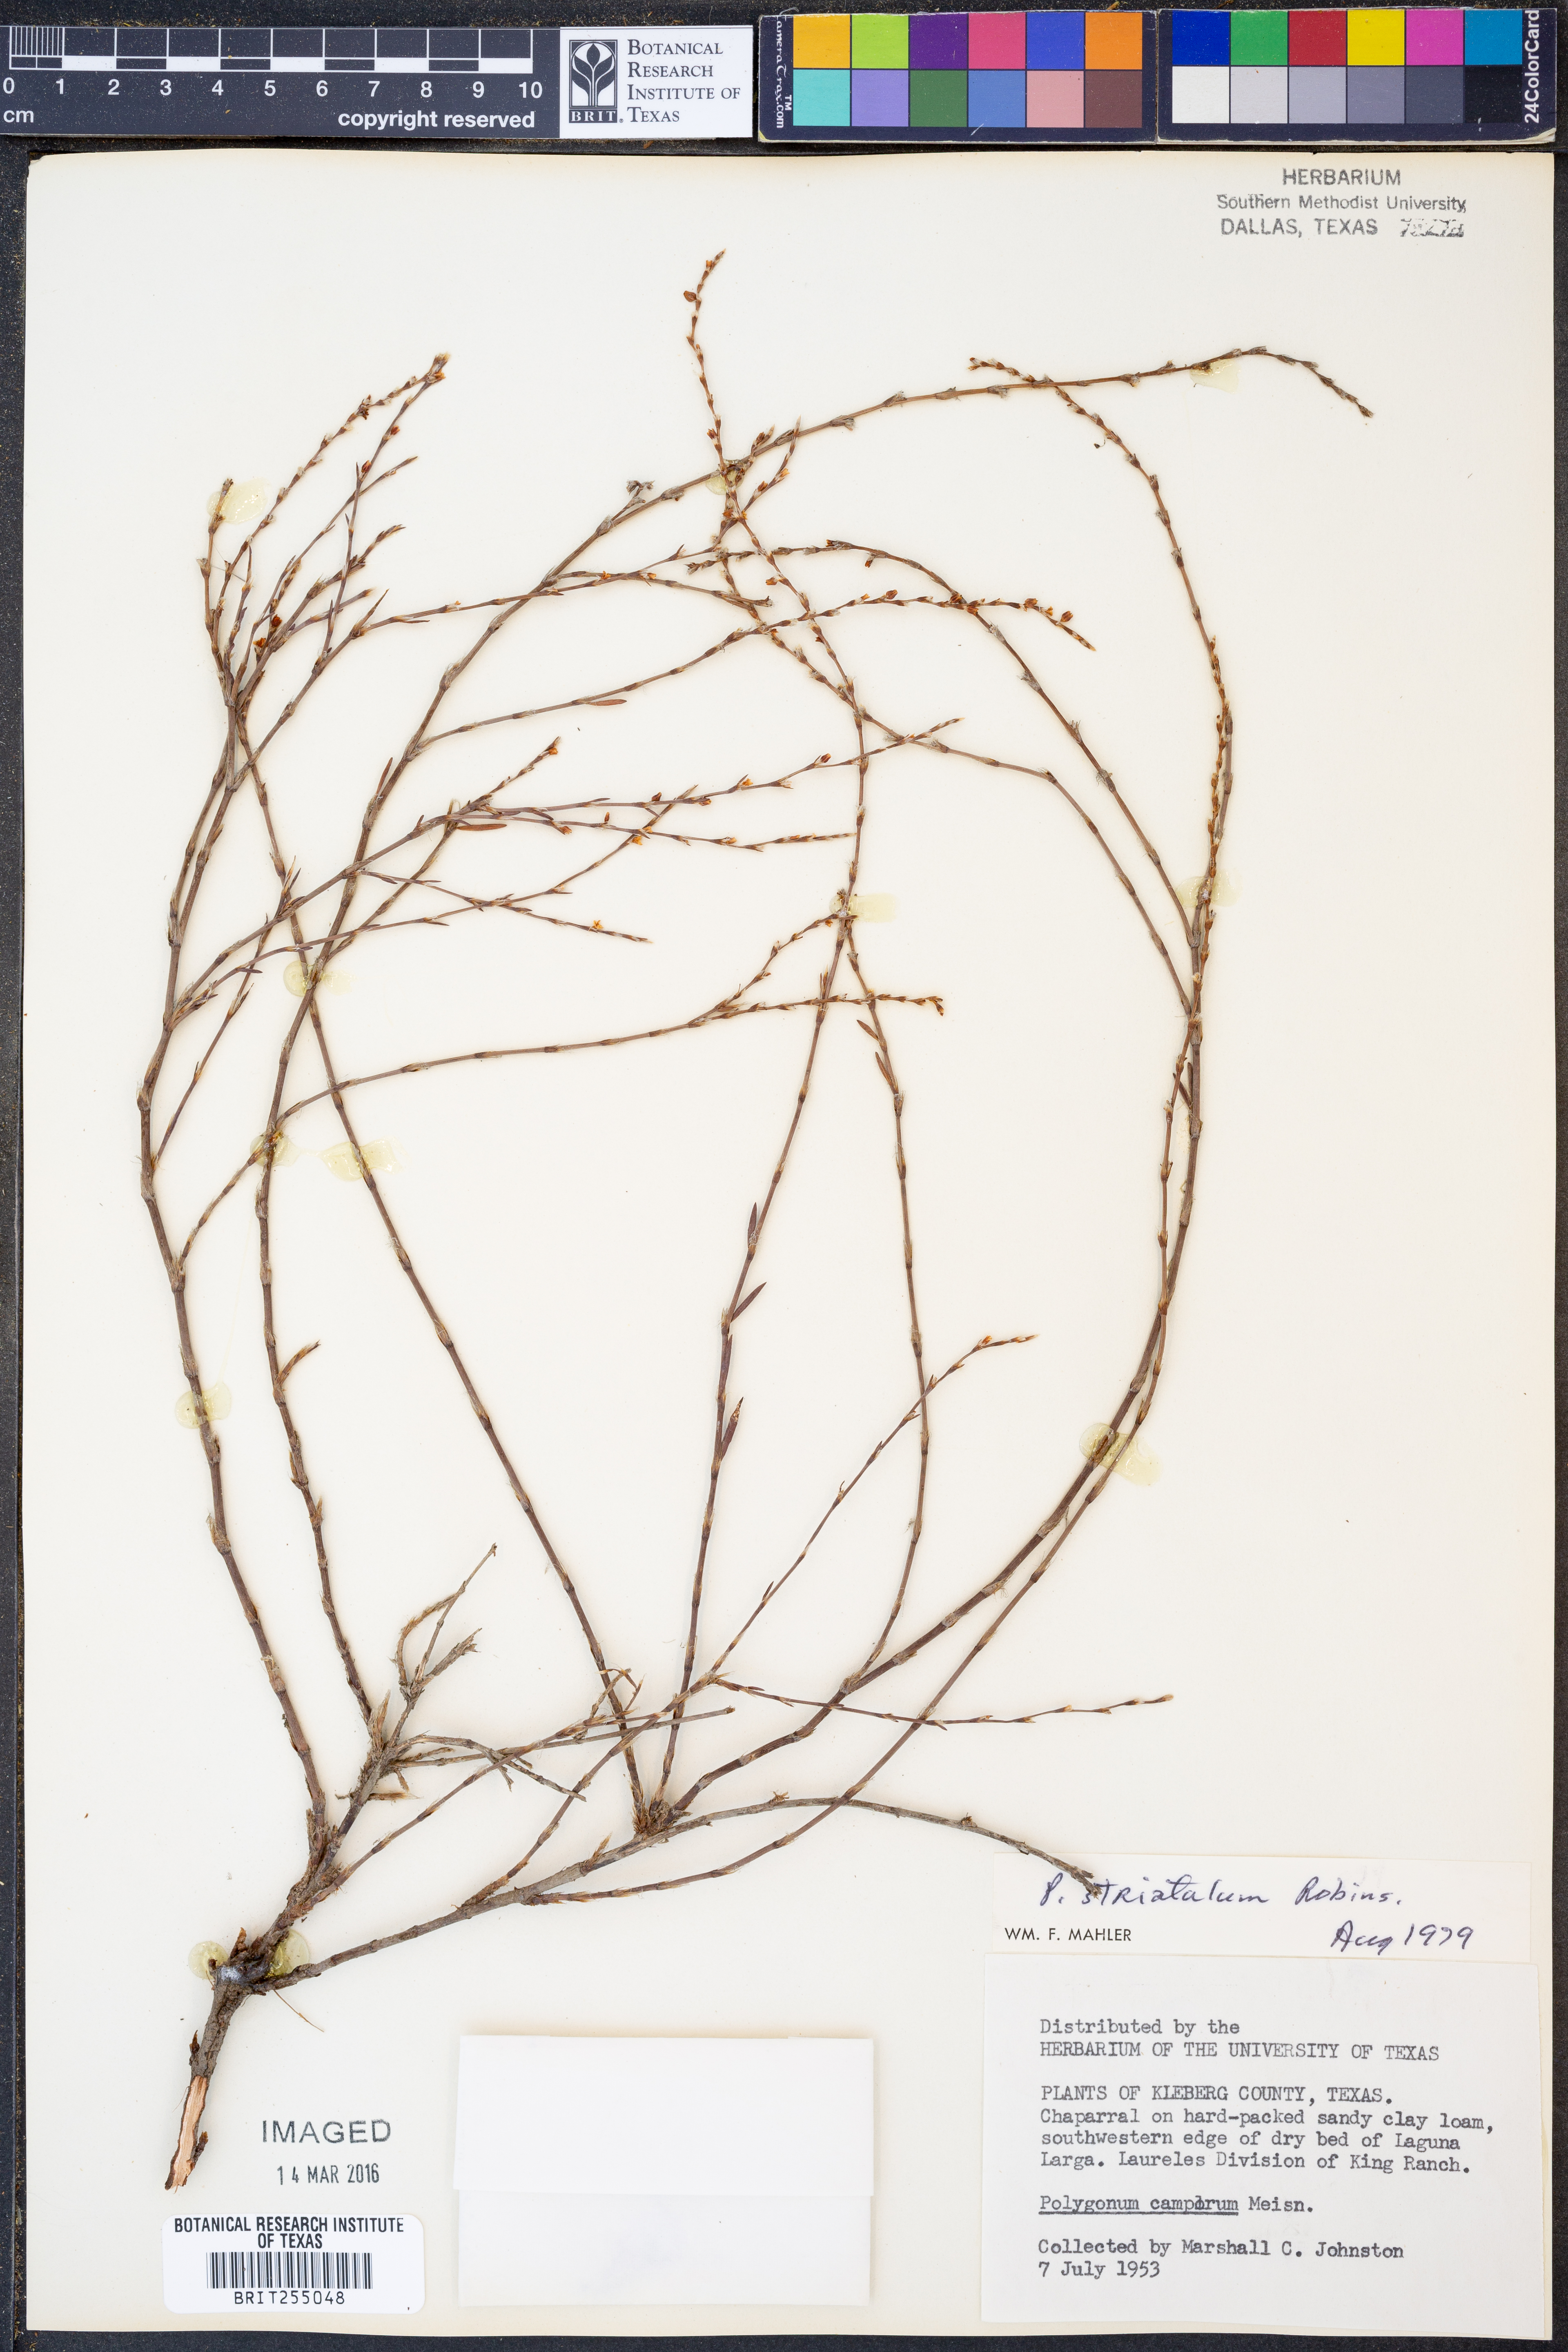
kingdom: Plantae
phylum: Tracheophyta
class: Magnoliopsida
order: Caryophyllales
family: Polygonaceae
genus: Polygonum
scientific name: Polygonum striatulum
